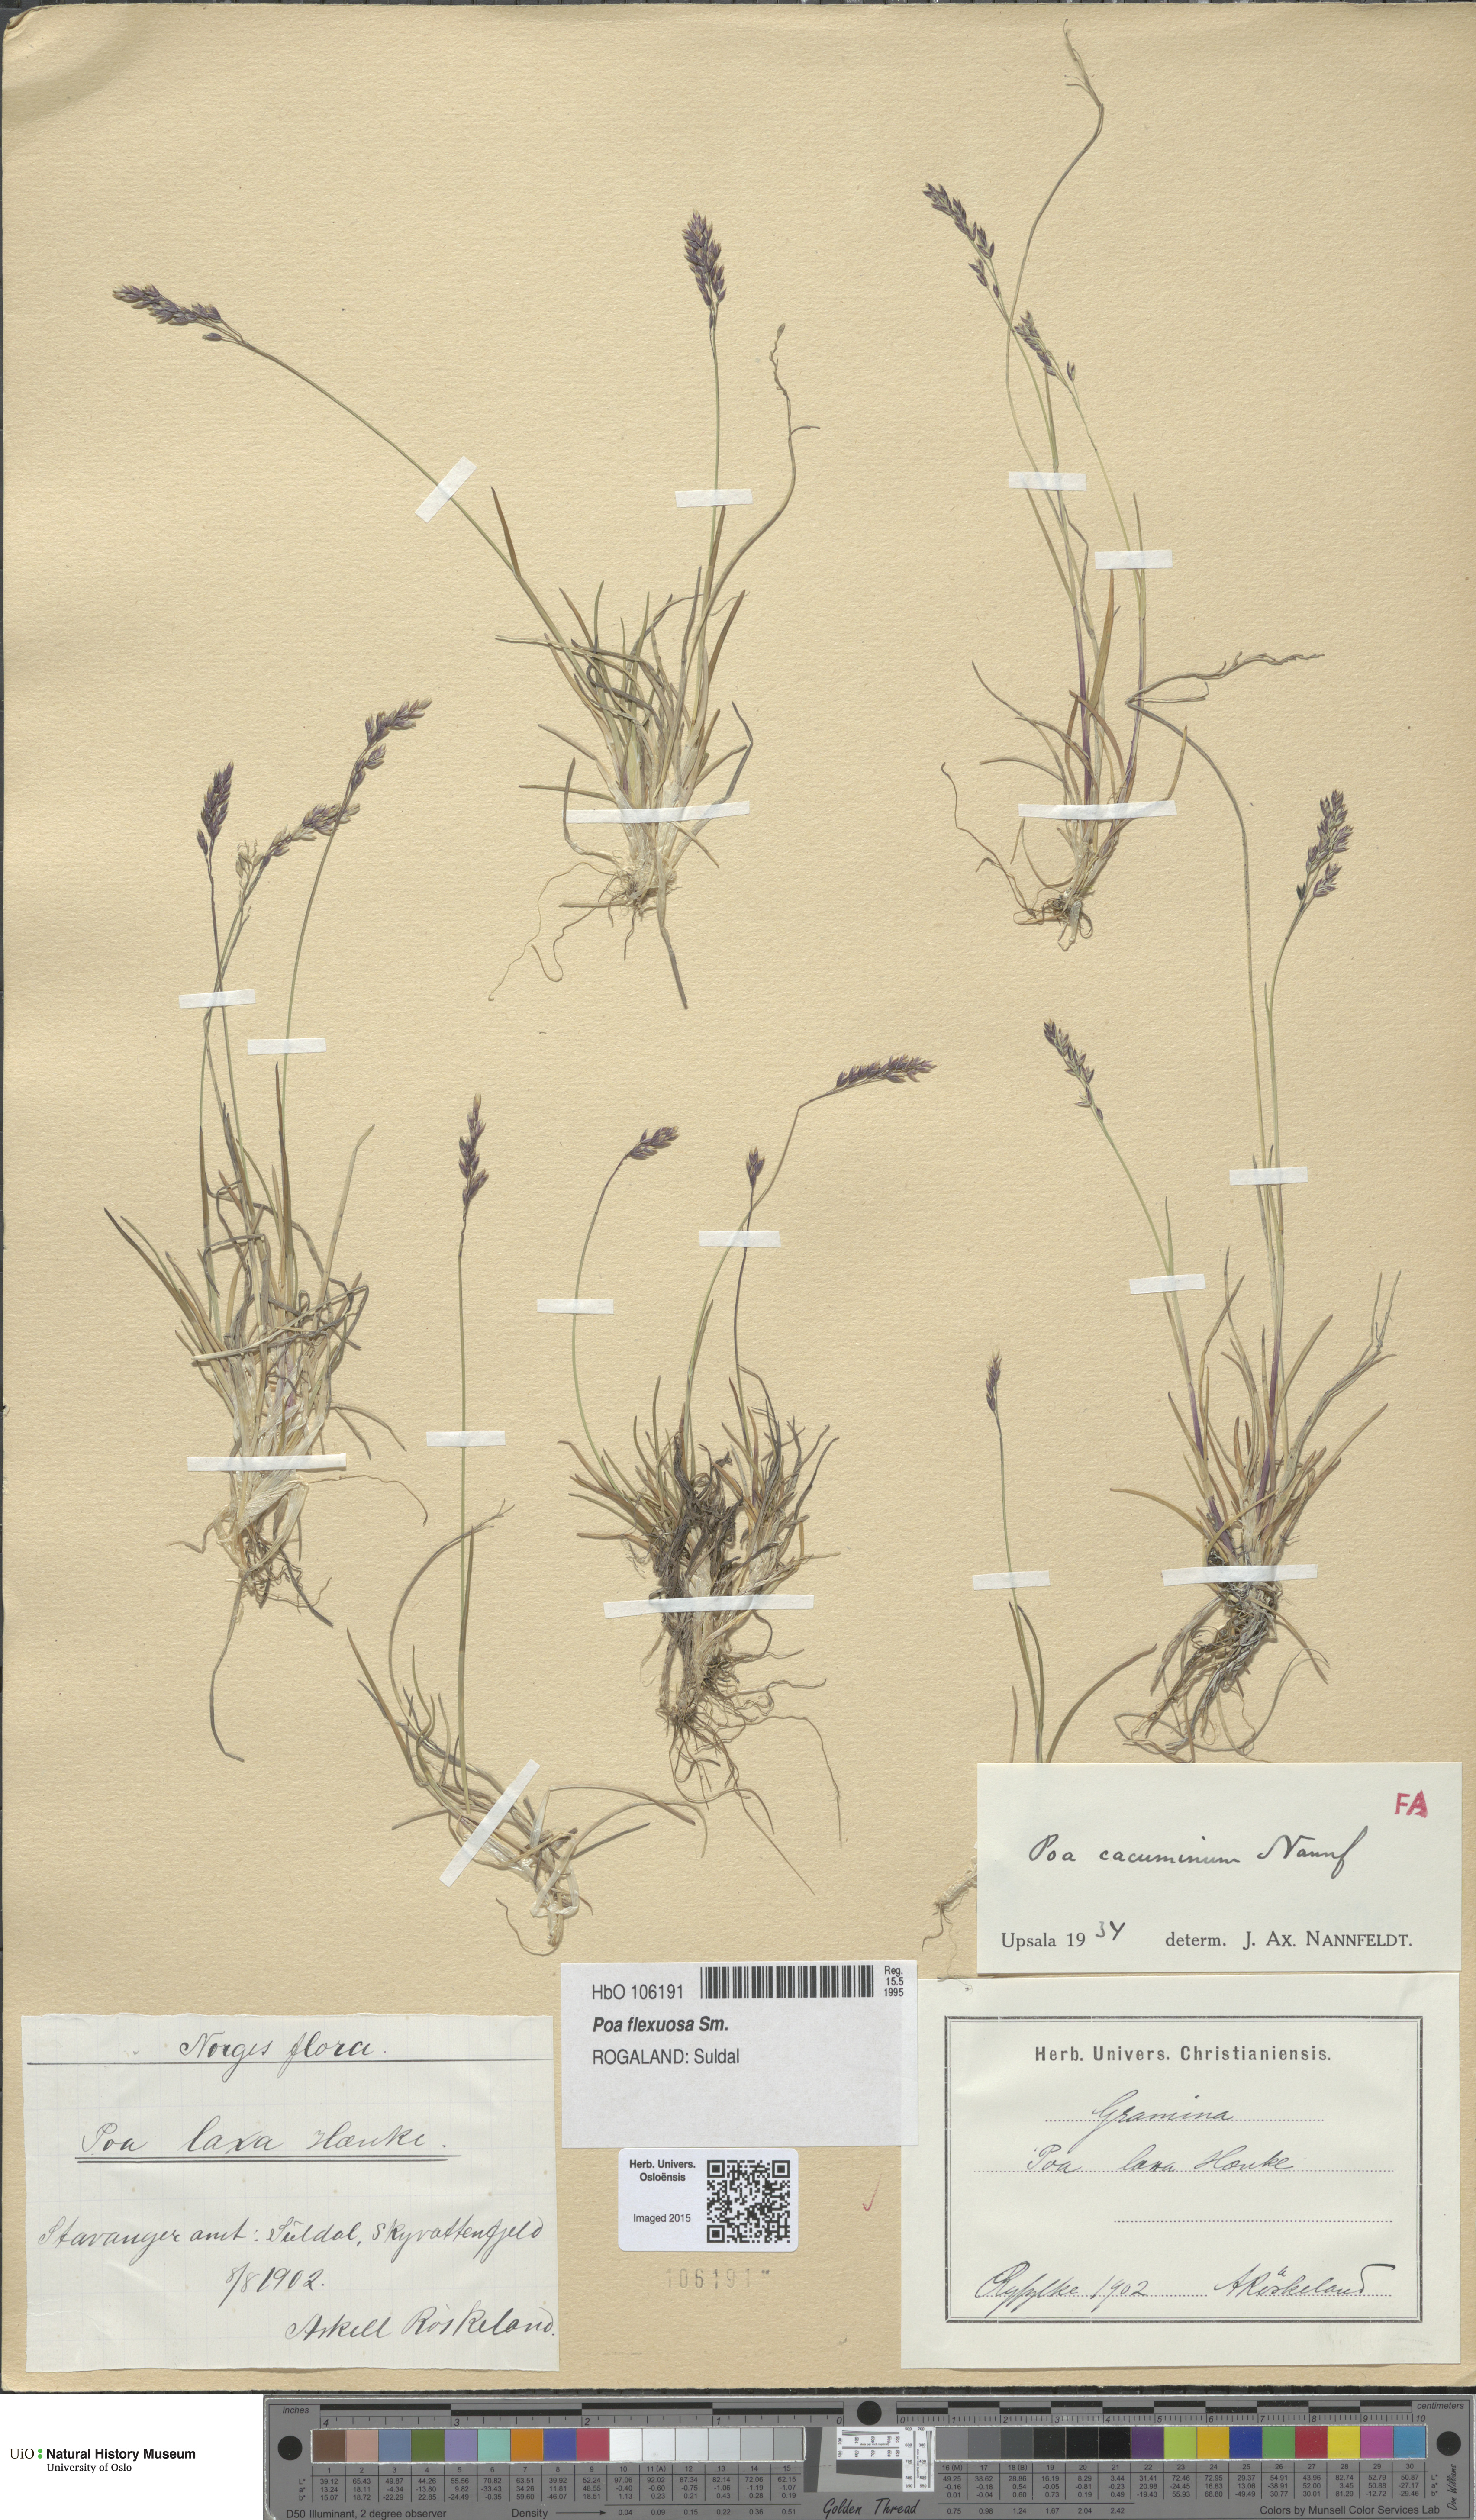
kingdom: Plantae
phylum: Tracheophyta
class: Liliopsida
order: Poales
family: Poaceae
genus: Poa
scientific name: Poa flexuosa
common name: Wavy meadow-grass
